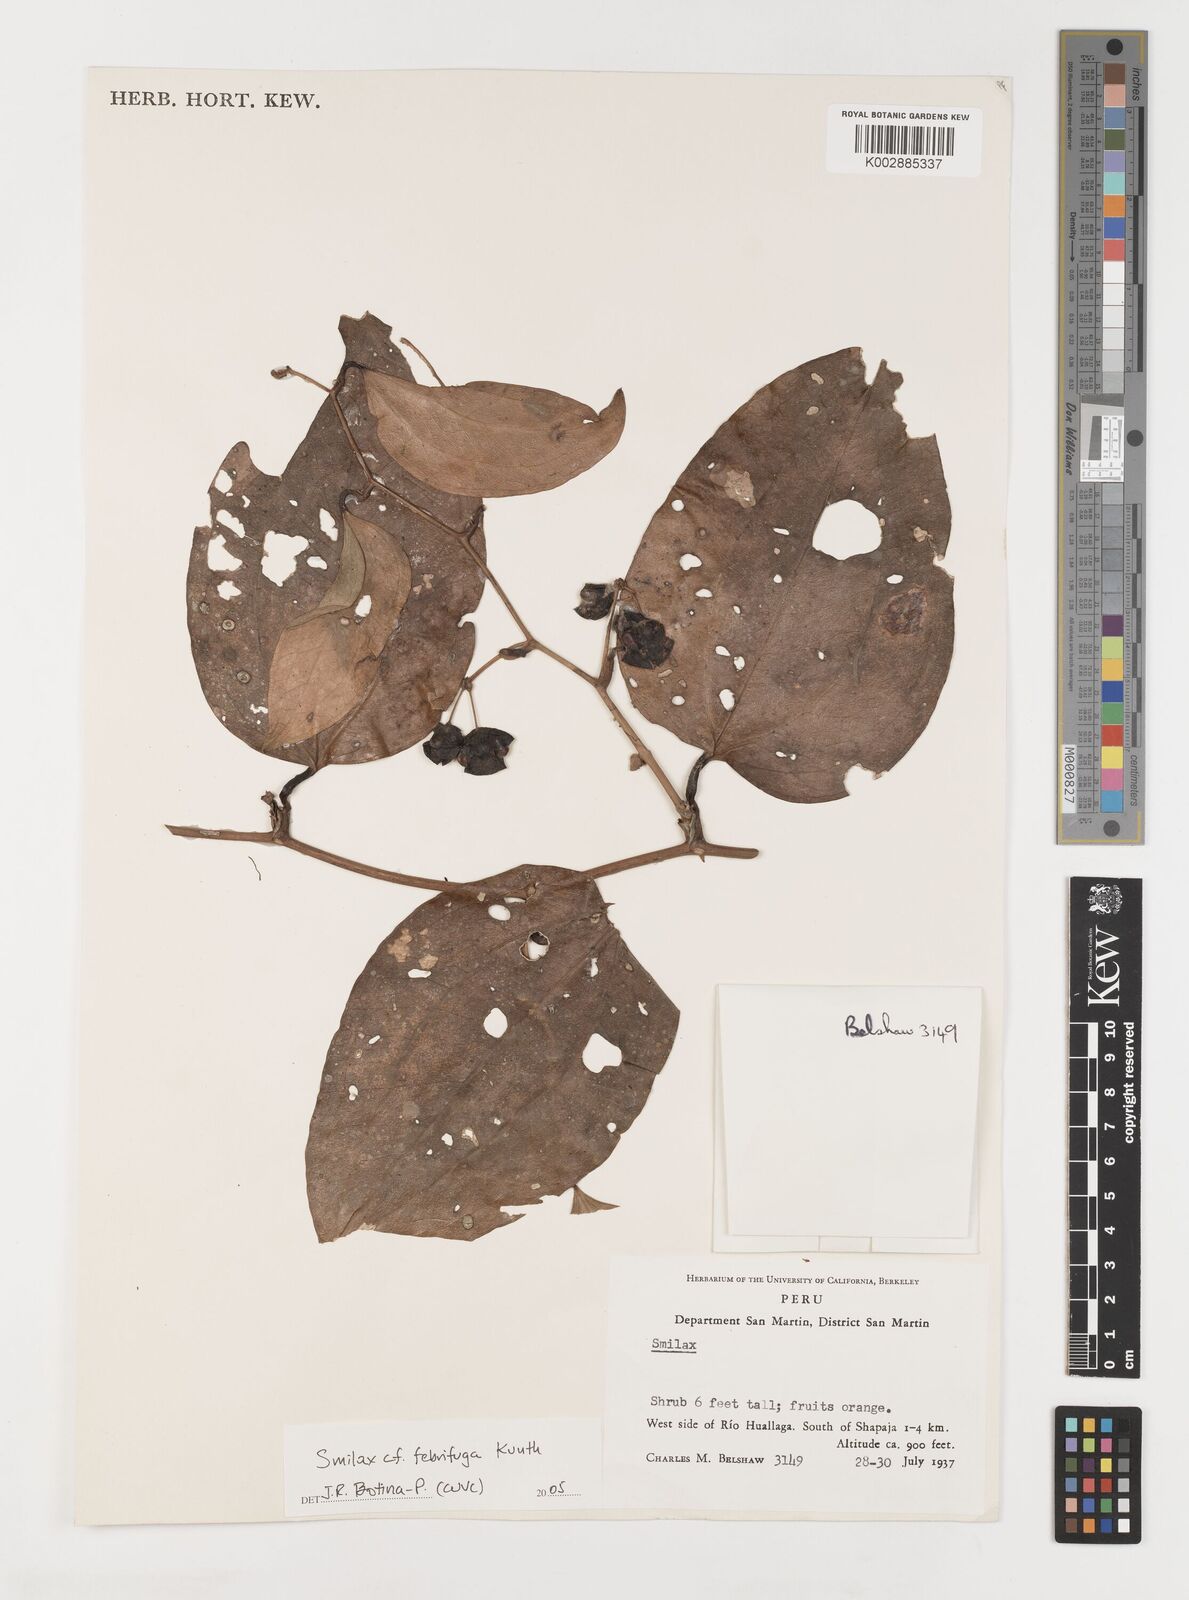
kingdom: Plantae
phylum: Tracheophyta
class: Liliopsida
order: Liliales
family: Smilacaceae
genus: Smilax
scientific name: Smilax purhampuy
